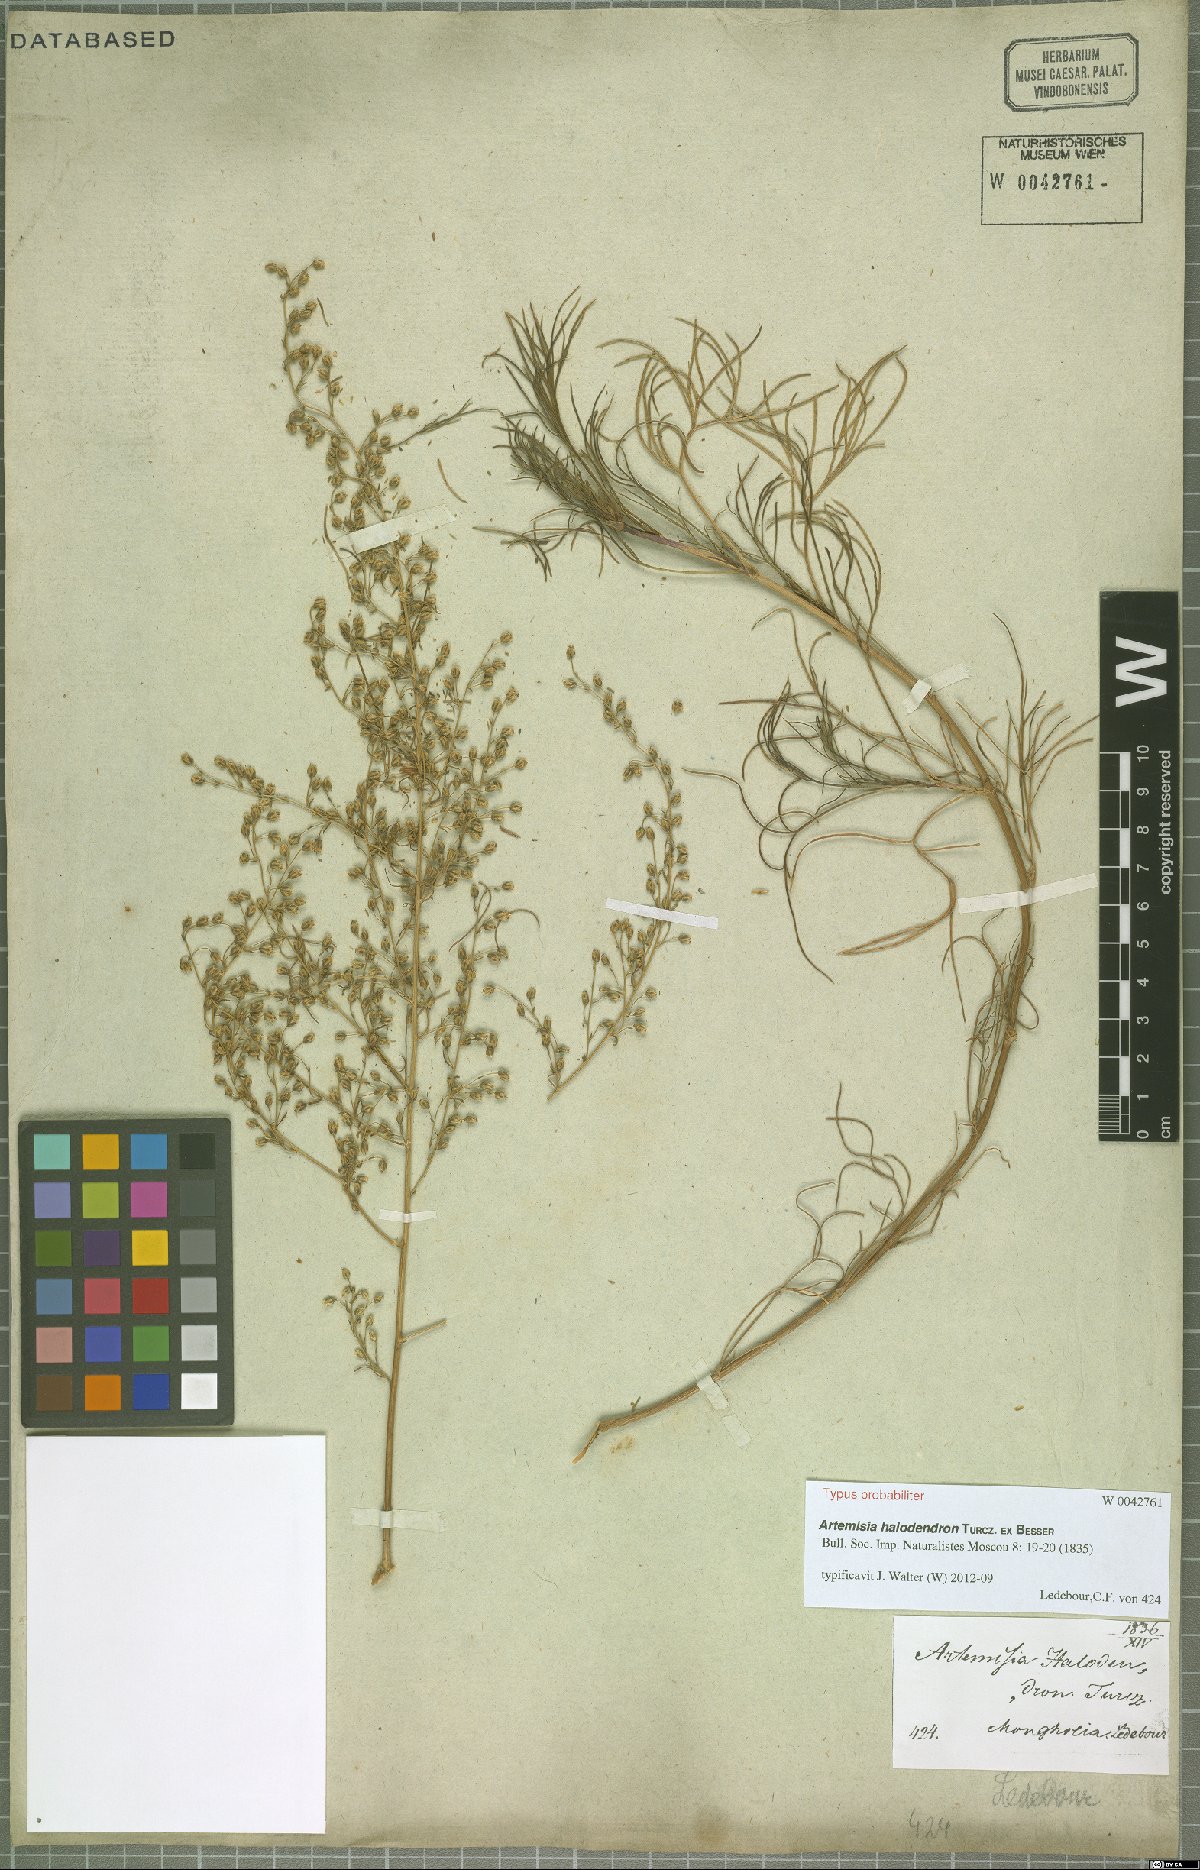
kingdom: Plantae
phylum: Tracheophyta
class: Magnoliopsida
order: Asterales
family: Asteraceae
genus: Artemisia
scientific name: Artemisia halodendron
